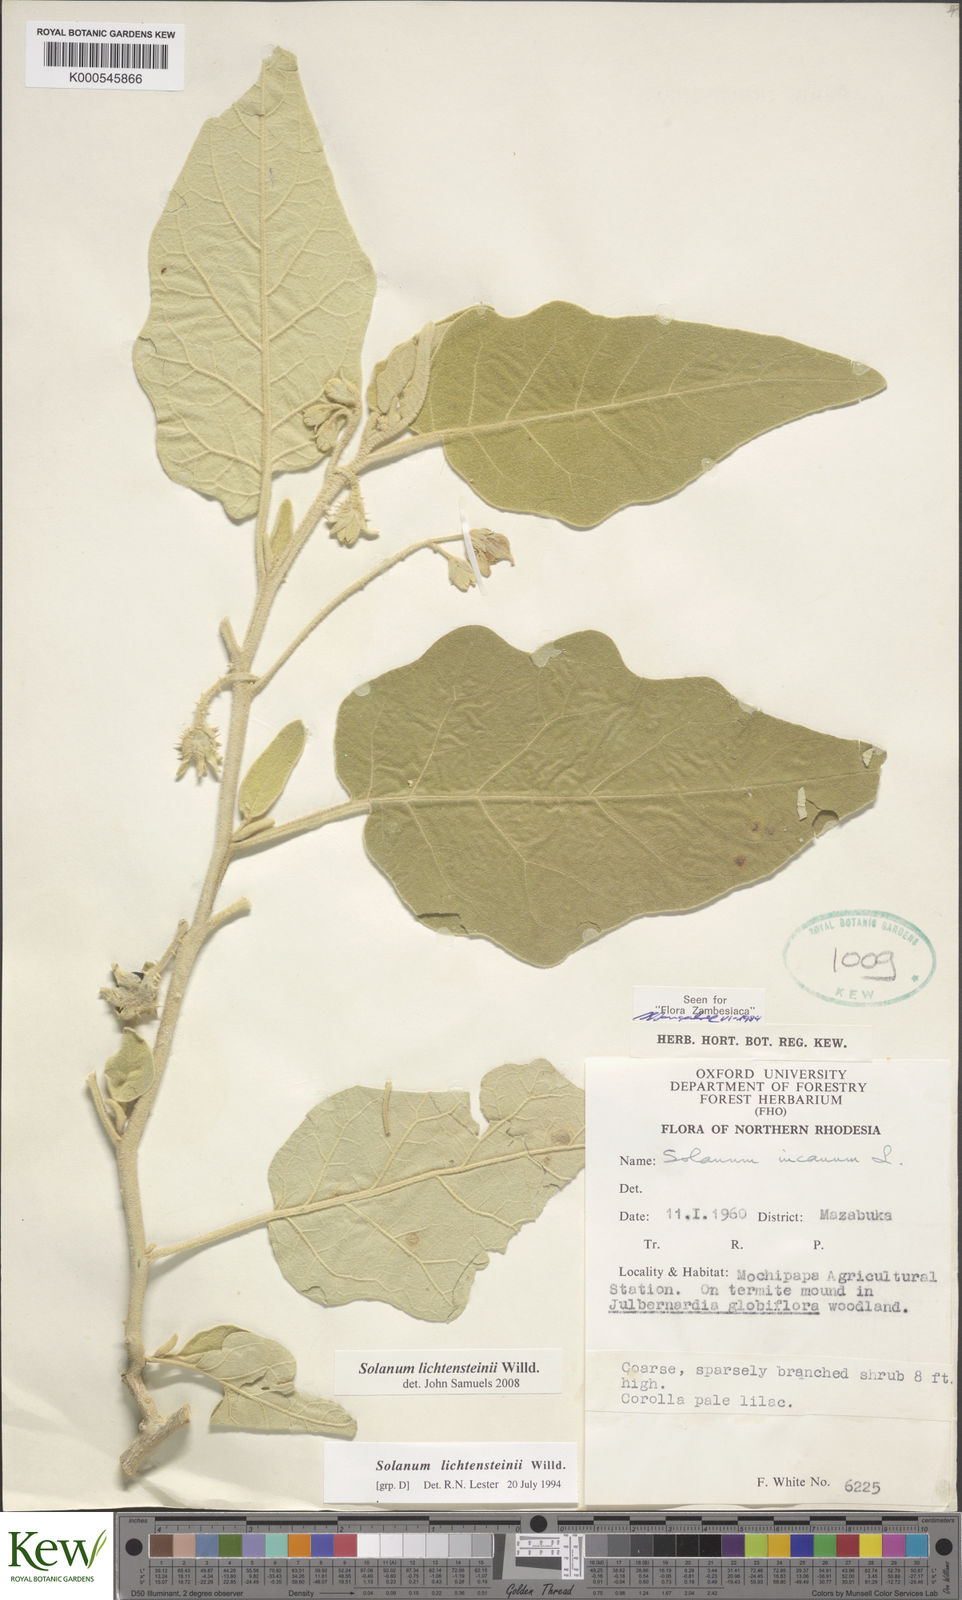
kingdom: Plantae
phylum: Tracheophyta
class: Magnoliopsida
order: Solanales
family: Solanaceae
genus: Solanum
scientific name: Solanum lichtensteinii
